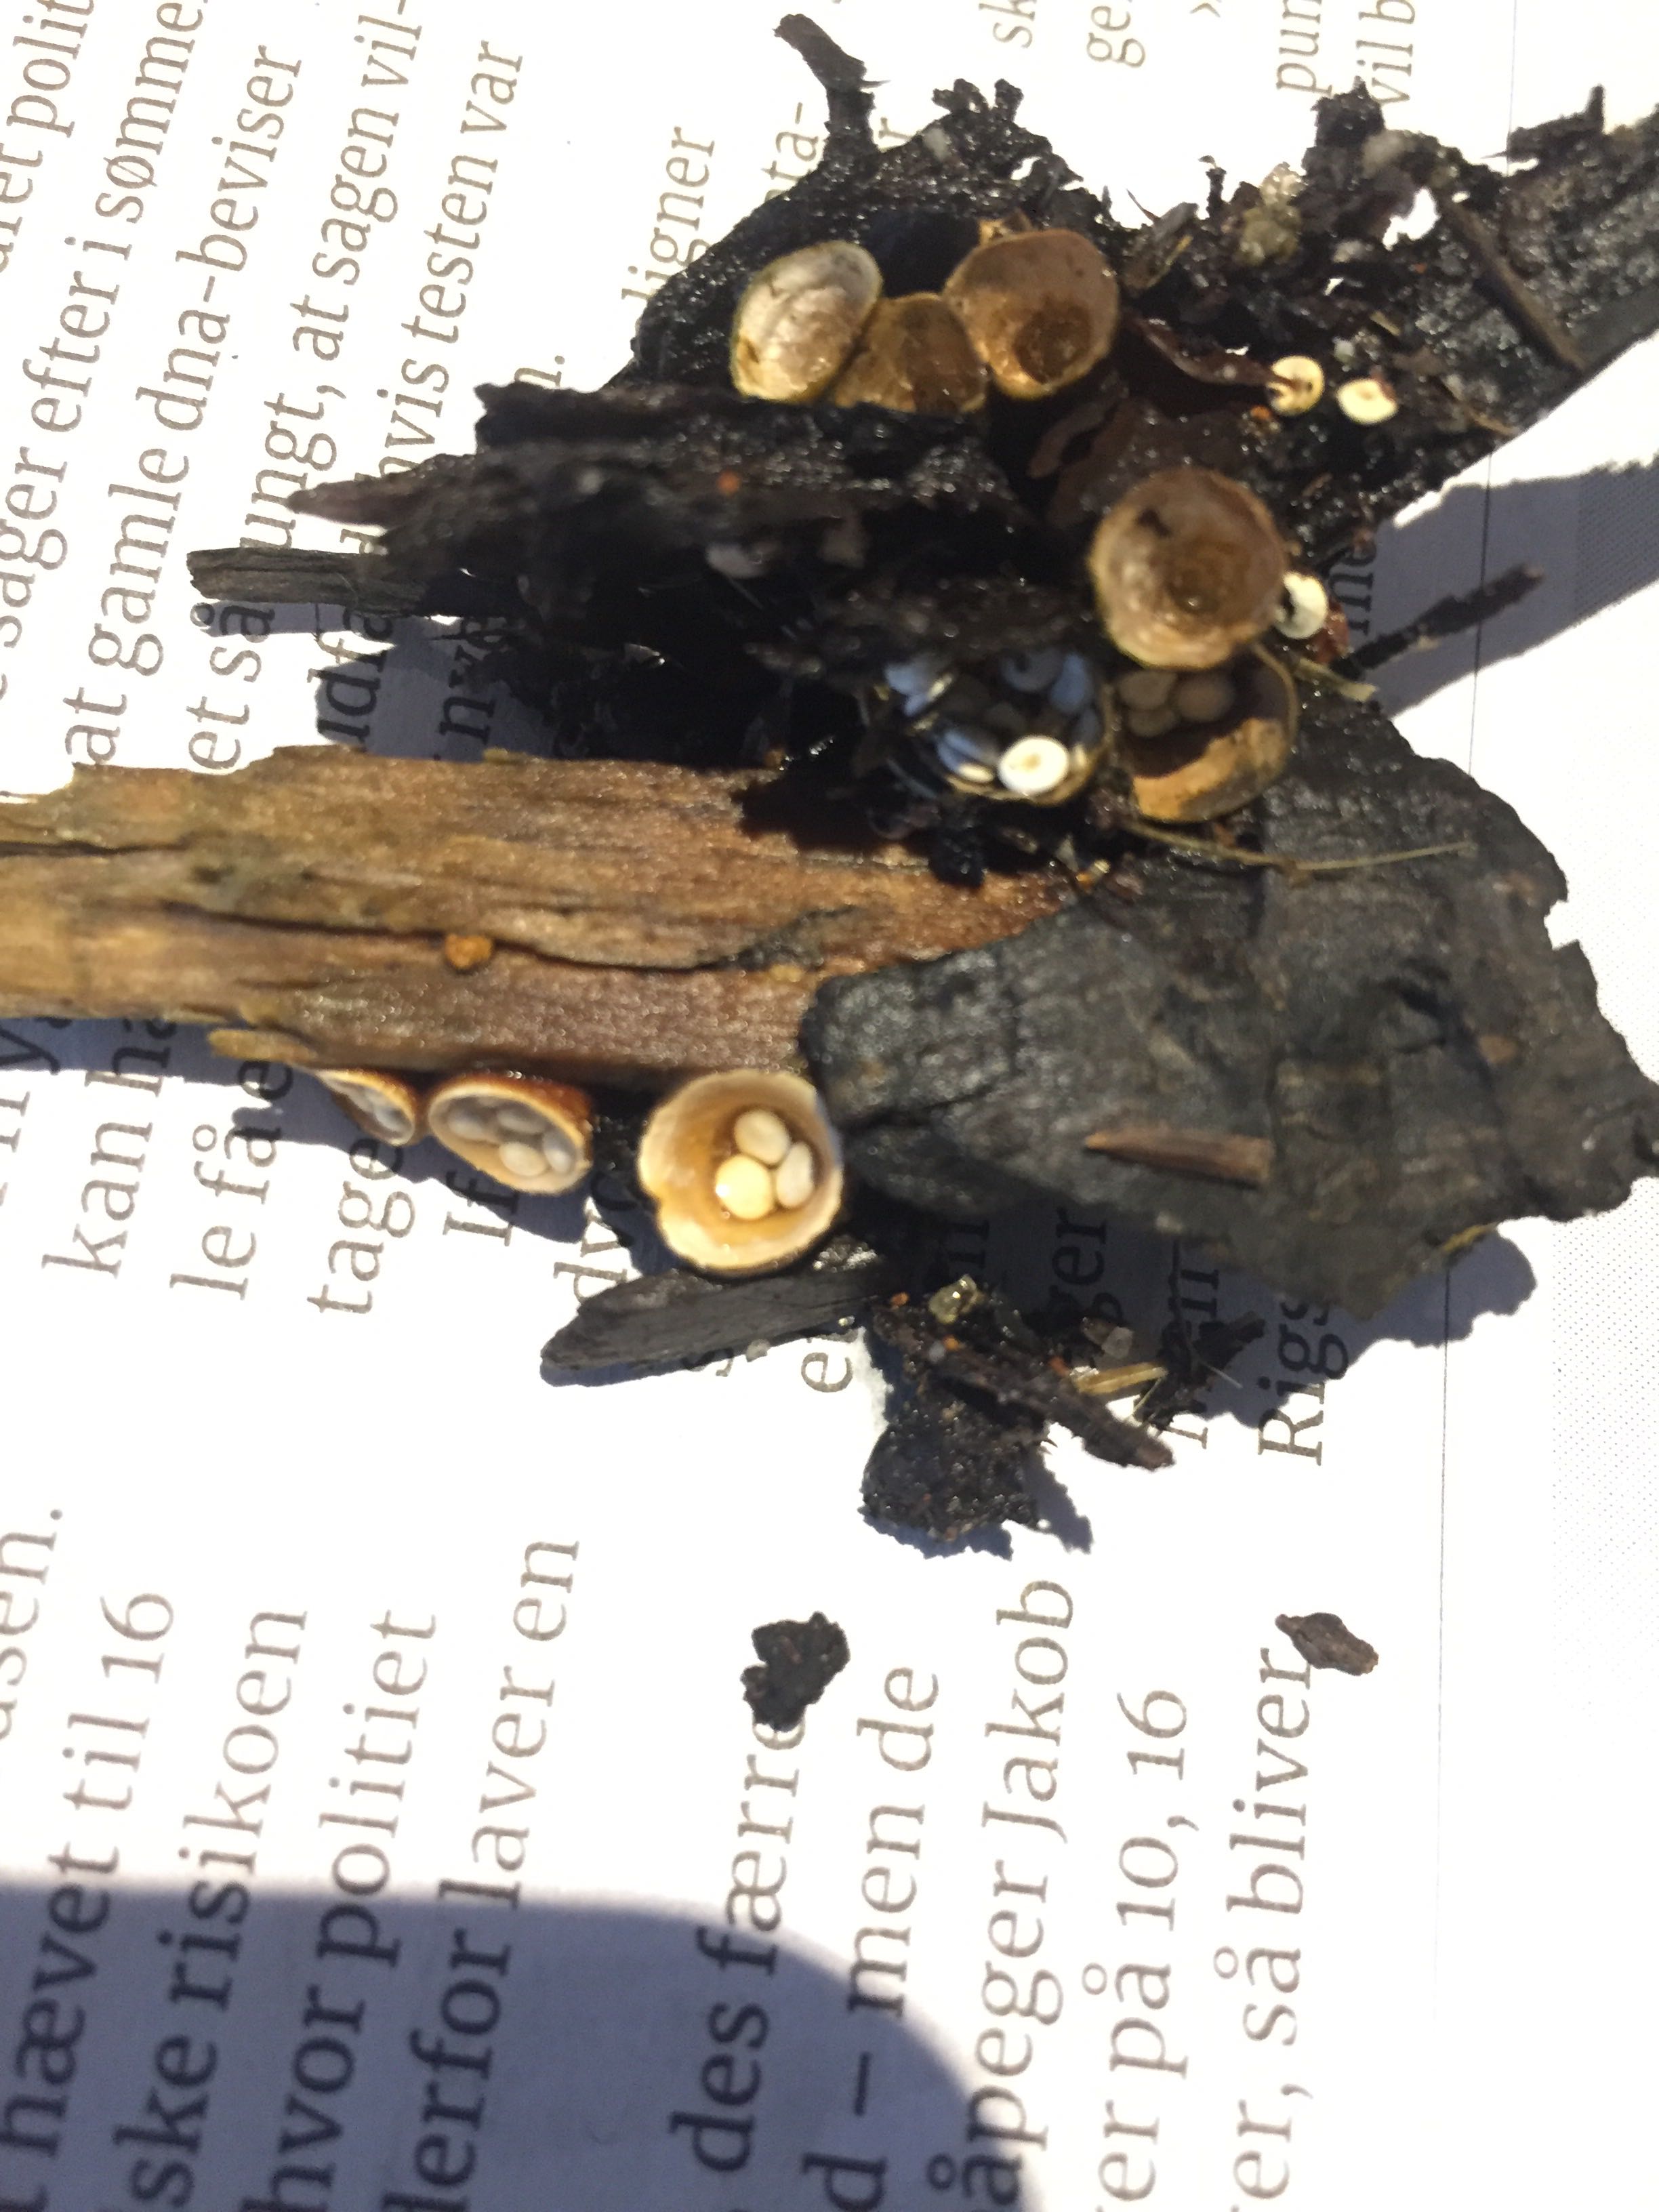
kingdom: Fungi
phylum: Basidiomycota
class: Agaricomycetes
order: Agaricales
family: Nidulariaceae
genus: Crucibulum
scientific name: Crucibulum crucibuliforme
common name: krukkesvamp
